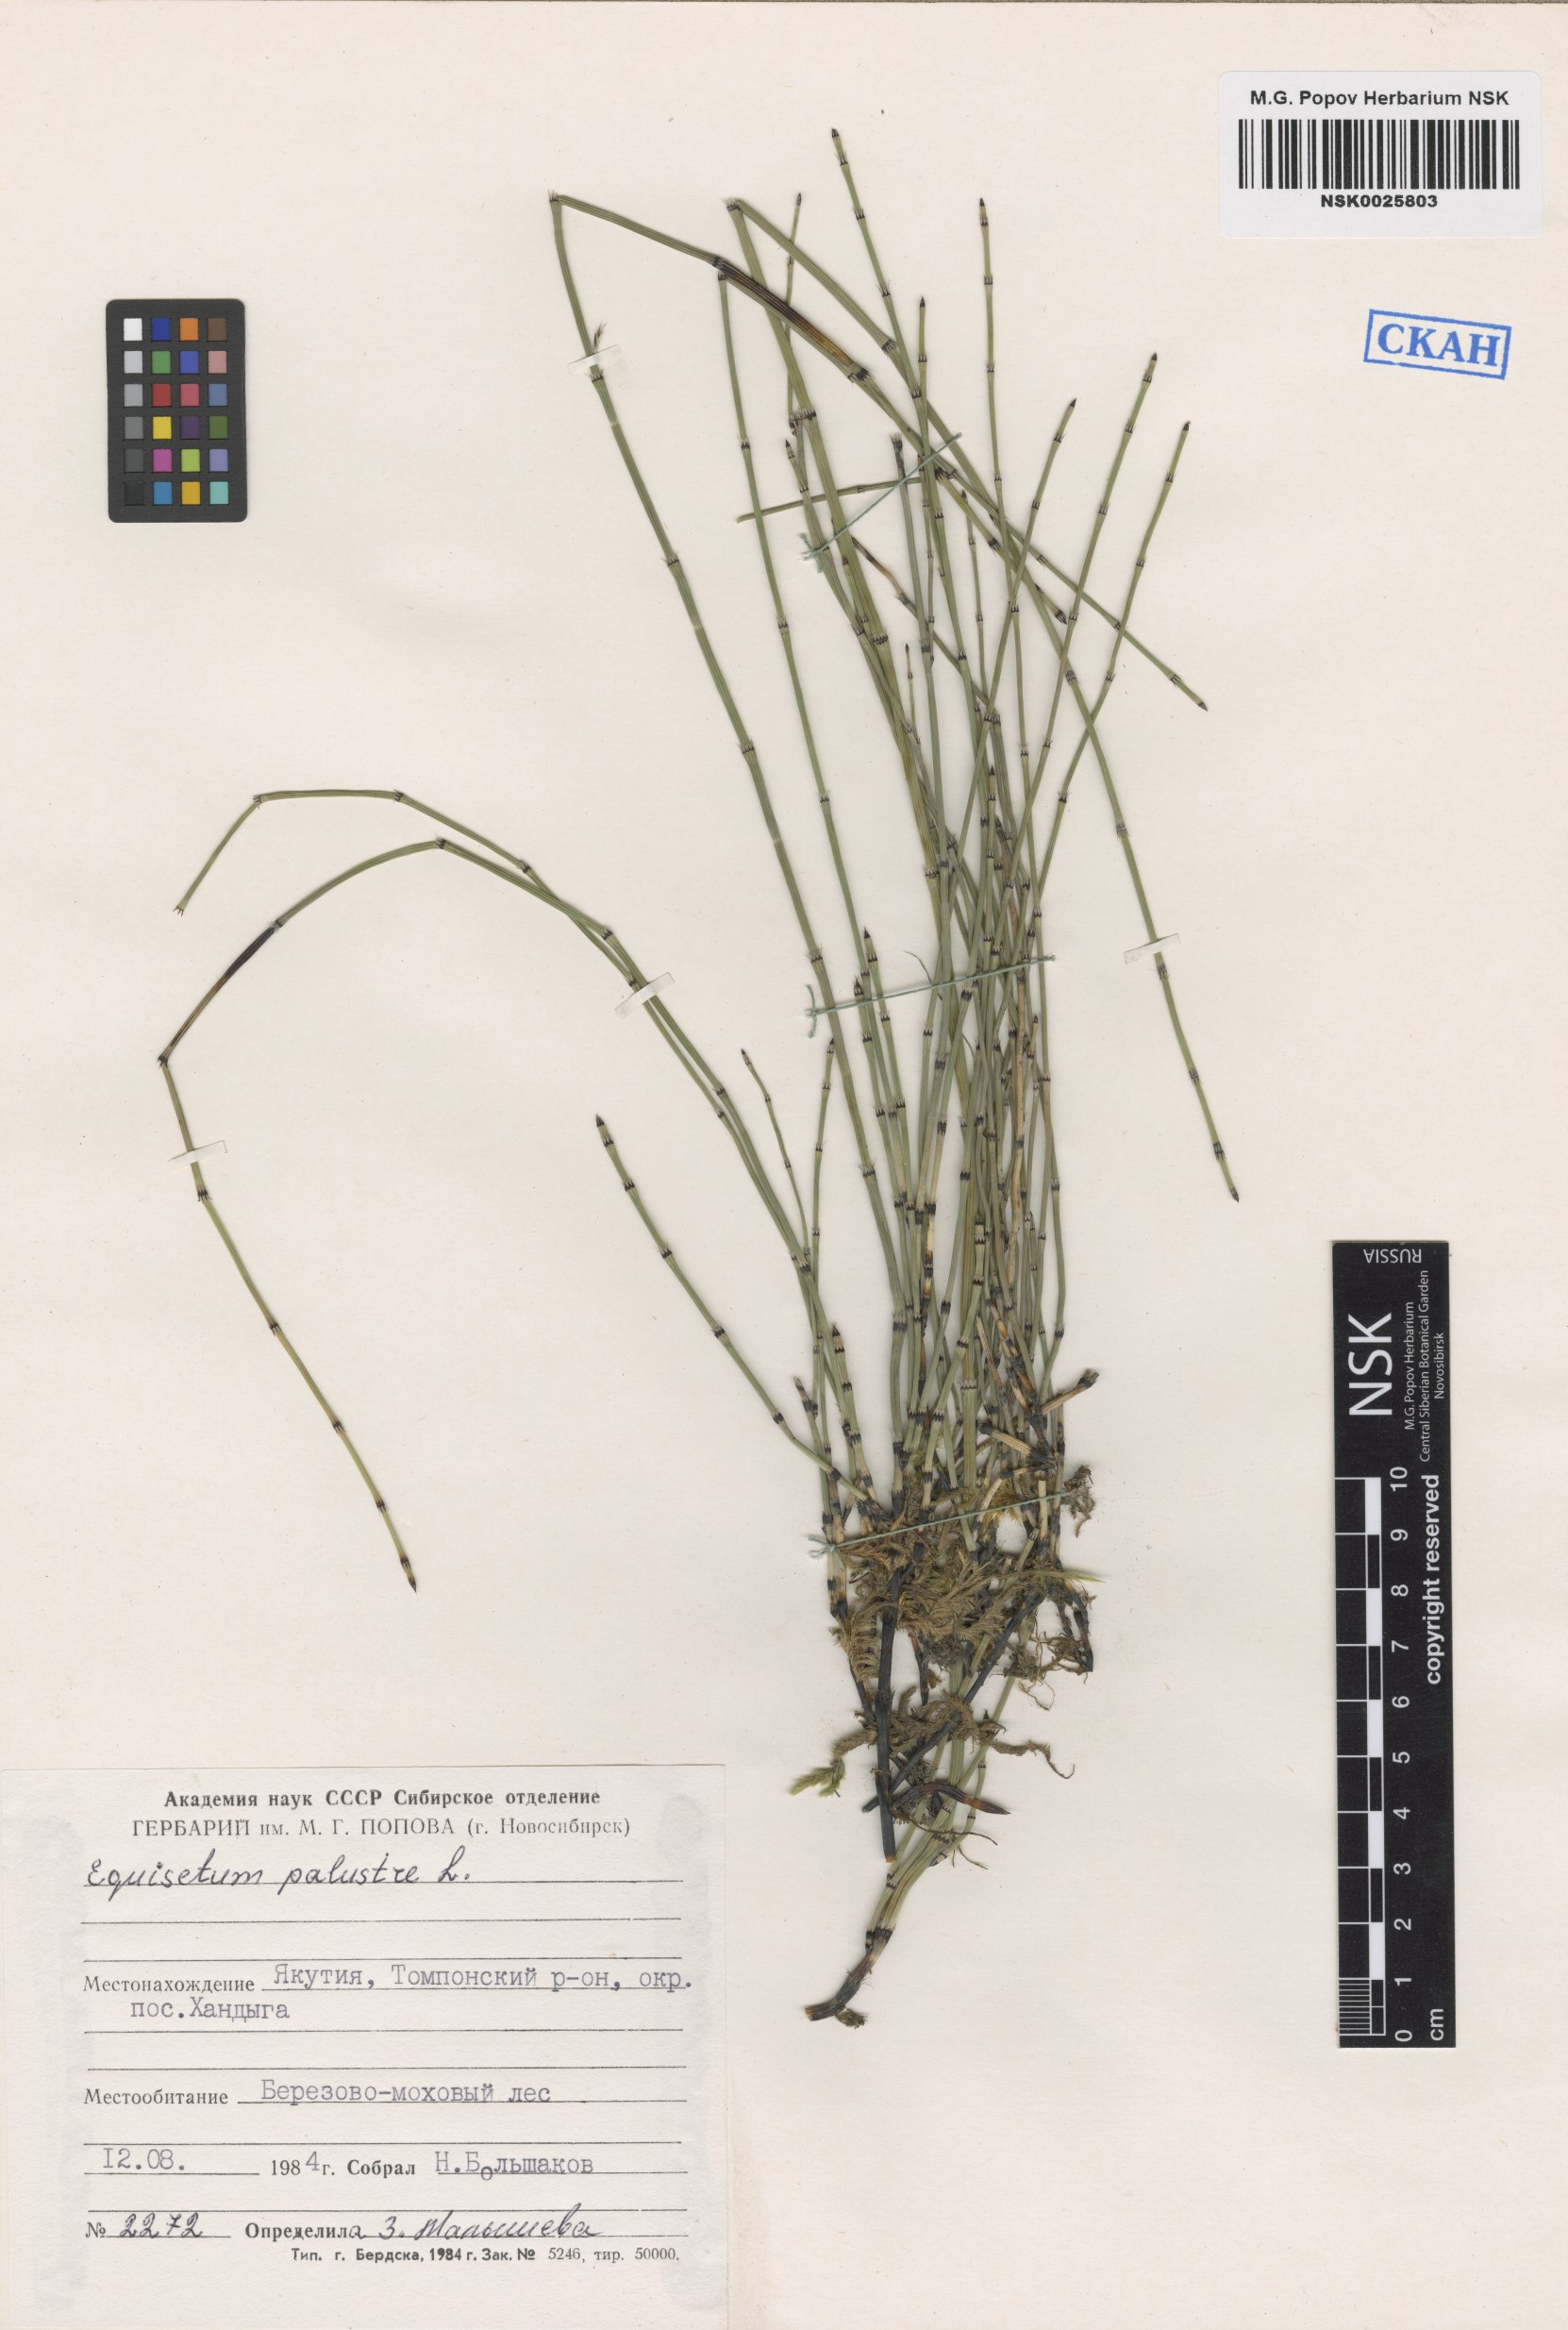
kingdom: Plantae
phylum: Tracheophyta
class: Polypodiopsida
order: Equisetales
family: Equisetaceae
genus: Equisetum
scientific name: Equisetum palustre
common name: Marsh horsetail
